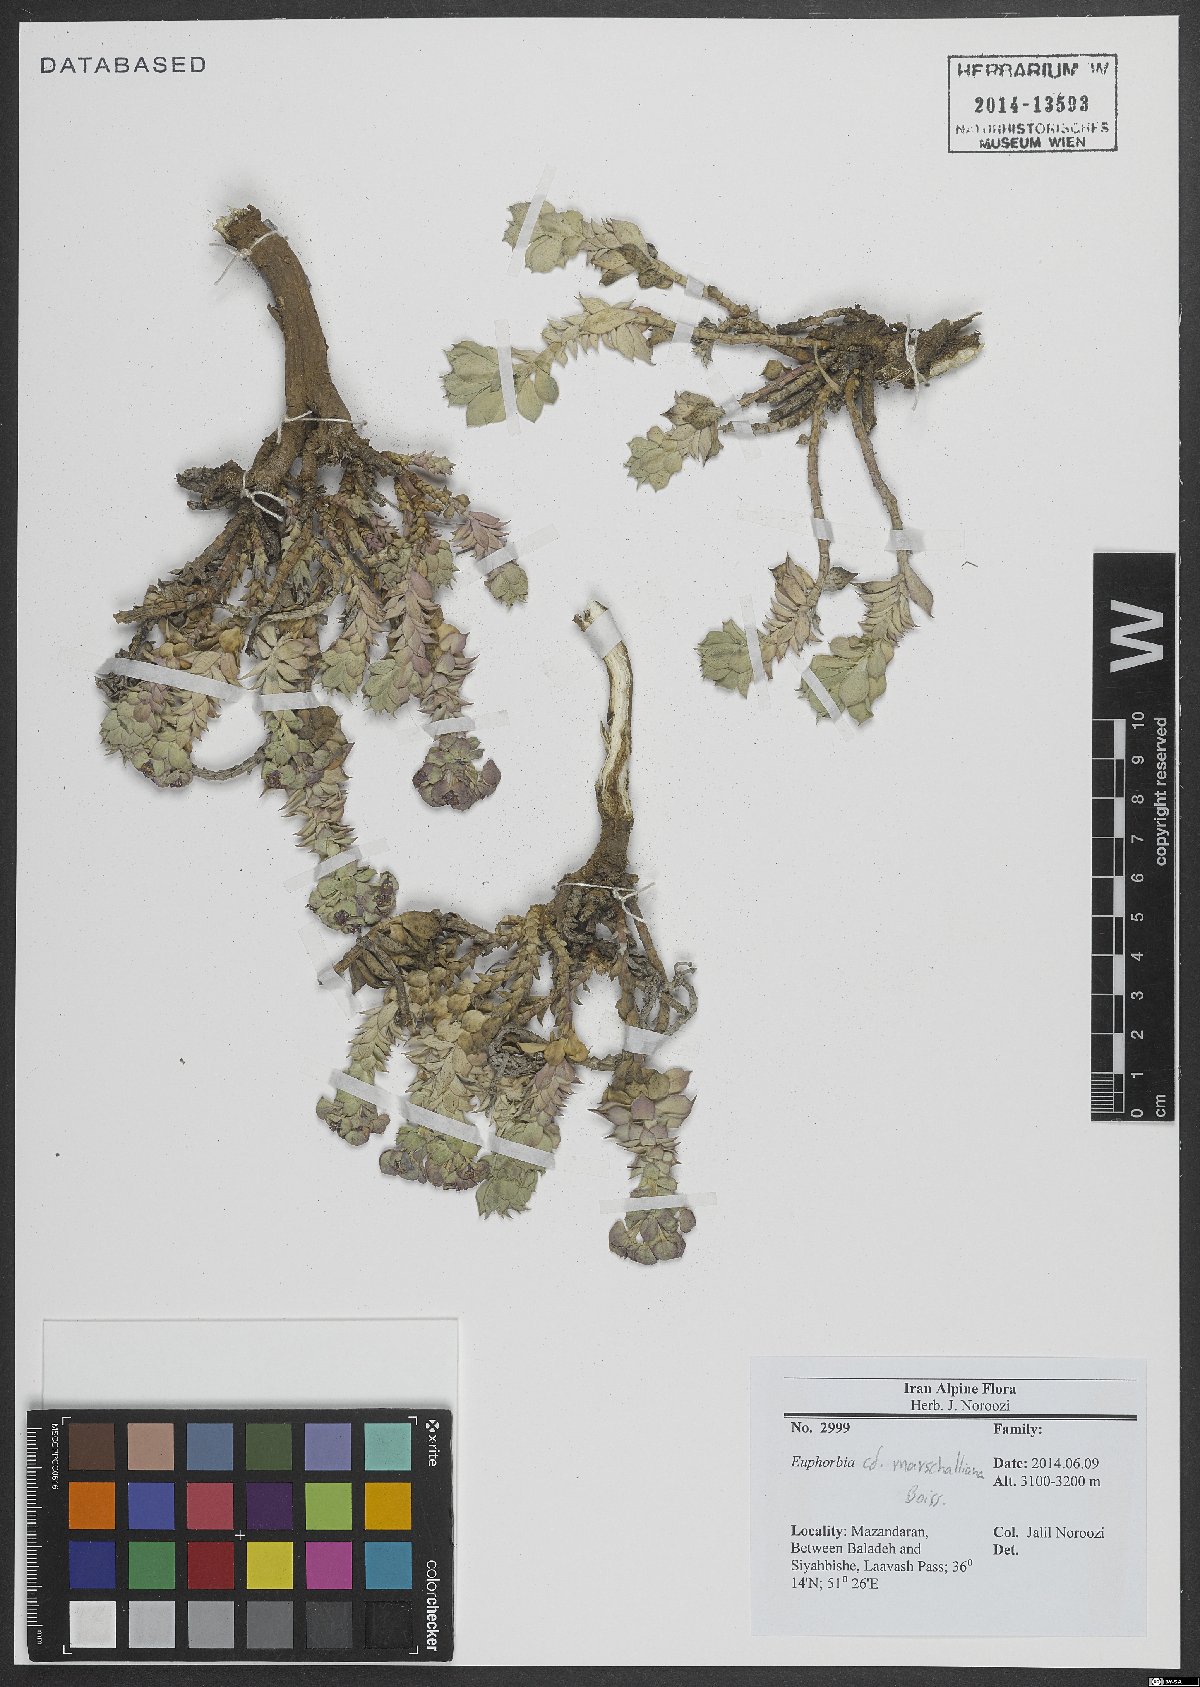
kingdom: Plantae
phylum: Tracheophyta
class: Magnoliopsida
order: Malpighiales
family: Euphorbiaceae
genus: Euphorbia
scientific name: Euphorbia marschalliana
